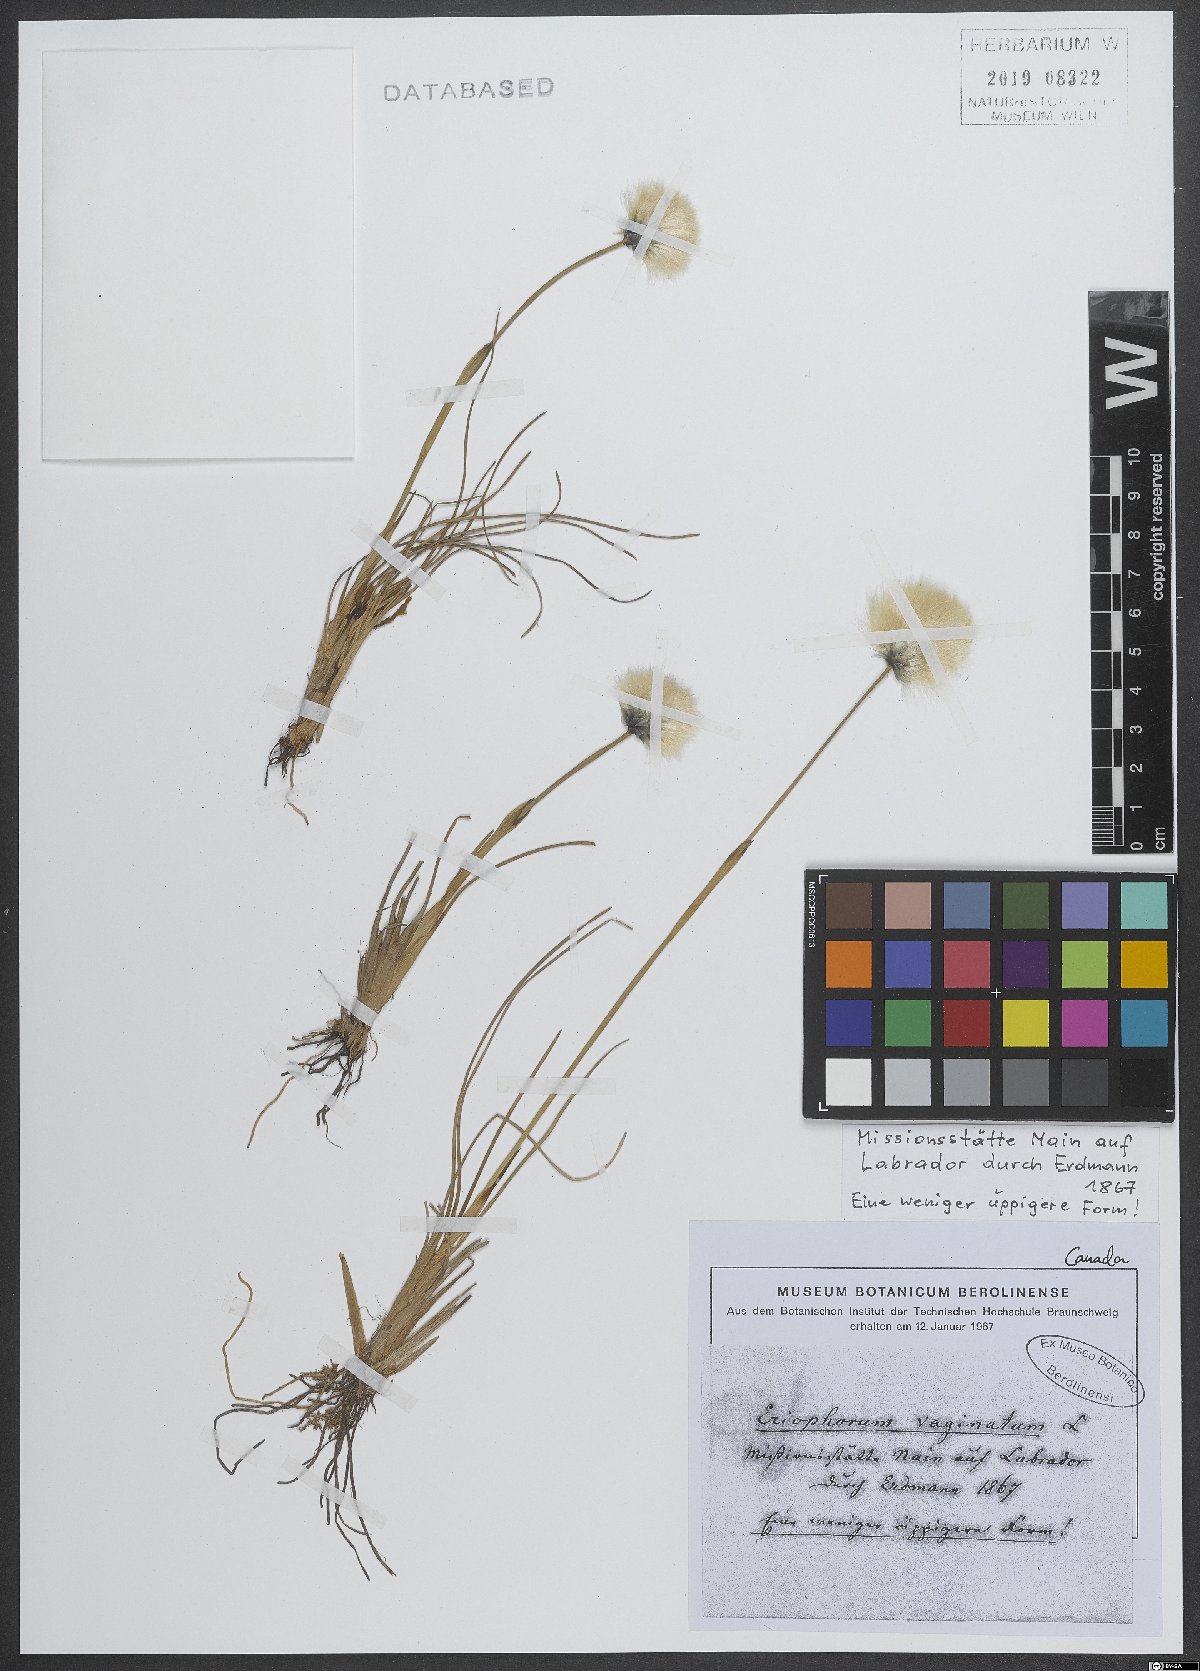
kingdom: Plantae
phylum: Tracheophyta
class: Liliopsida
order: Poales
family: Cyperaceae
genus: Eriophorum
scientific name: Eriophorum vaginatum
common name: Hare's-tail cottongrass
